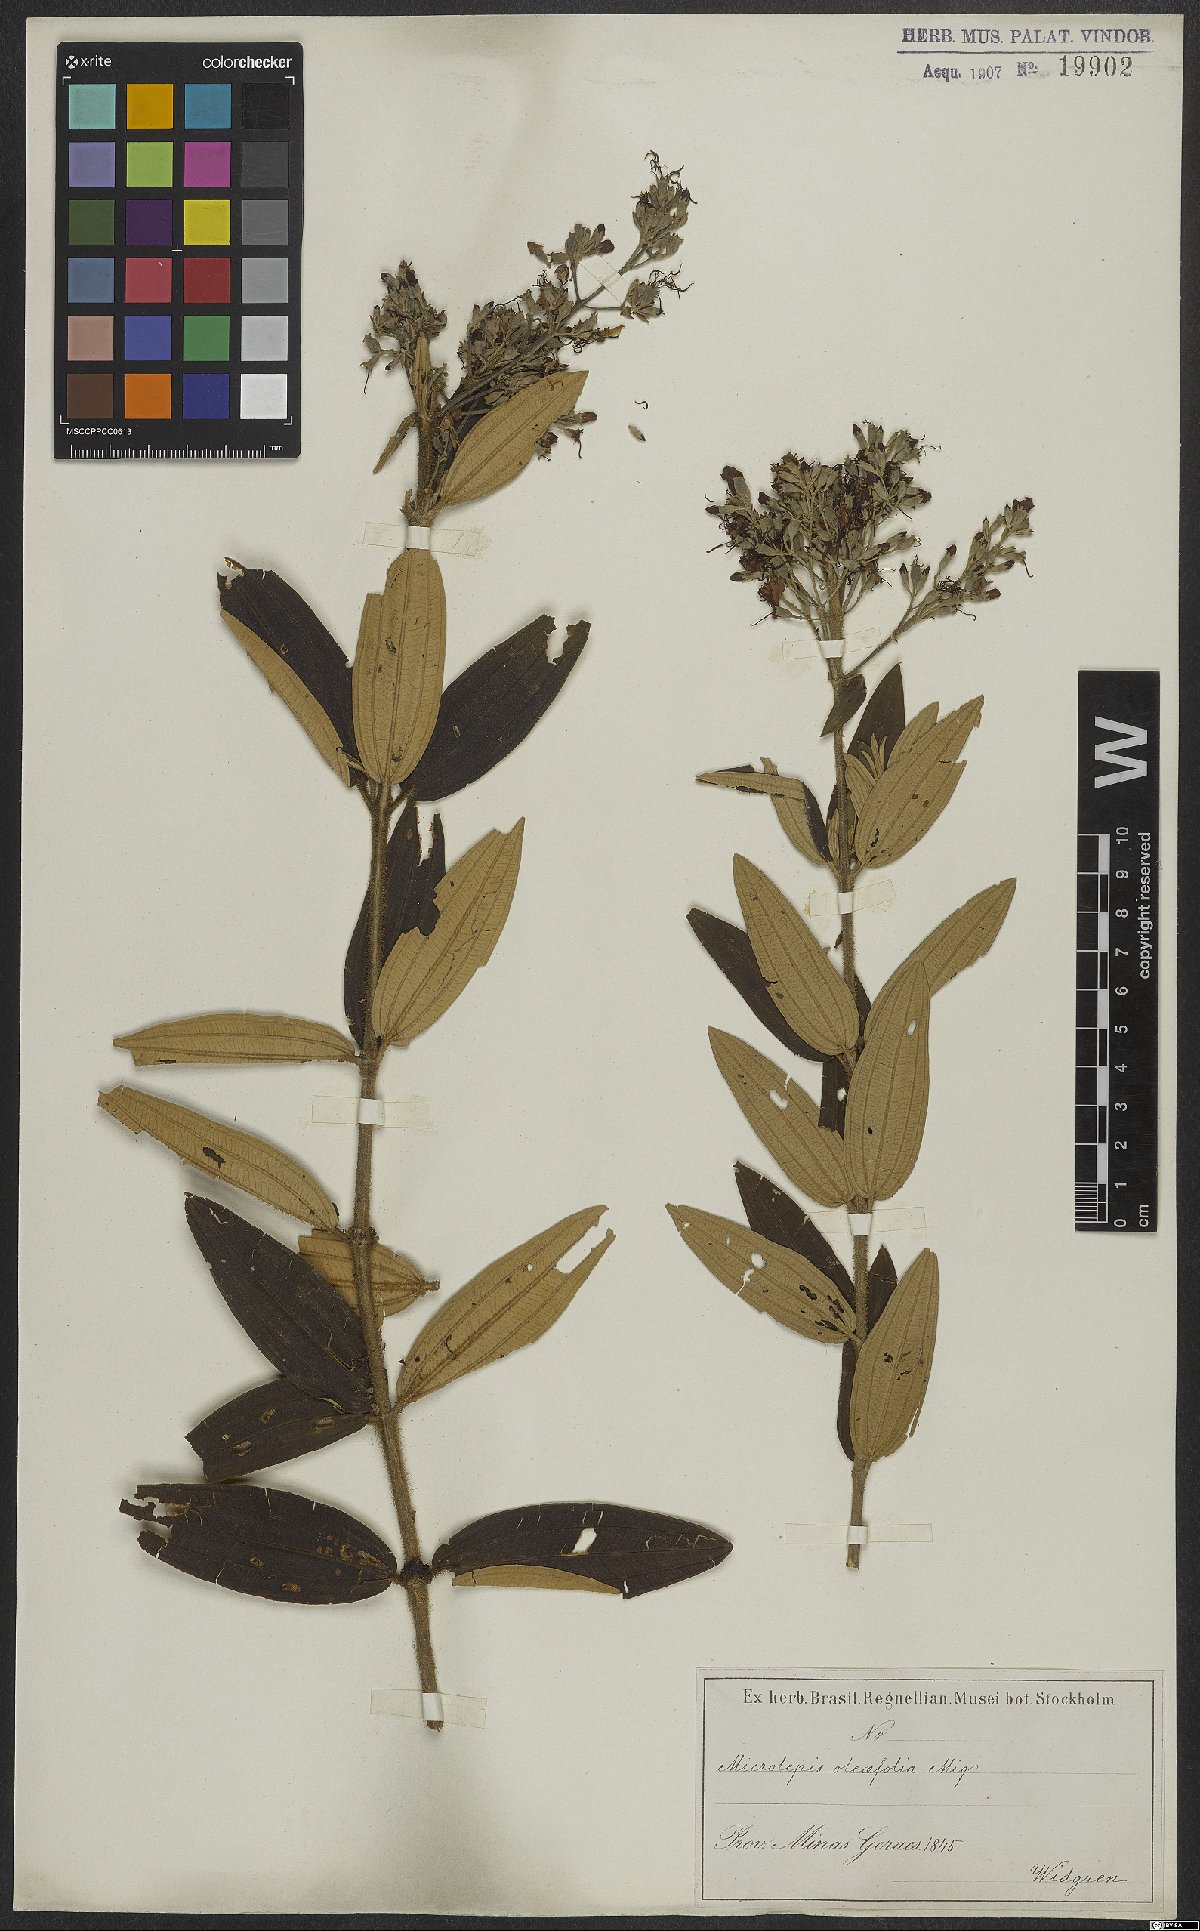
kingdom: Plantae
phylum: Tracheophyta
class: Magnoliopsida
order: Myrtales
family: Melastomataceae
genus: Pleroma
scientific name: Pleroma oleifolia
